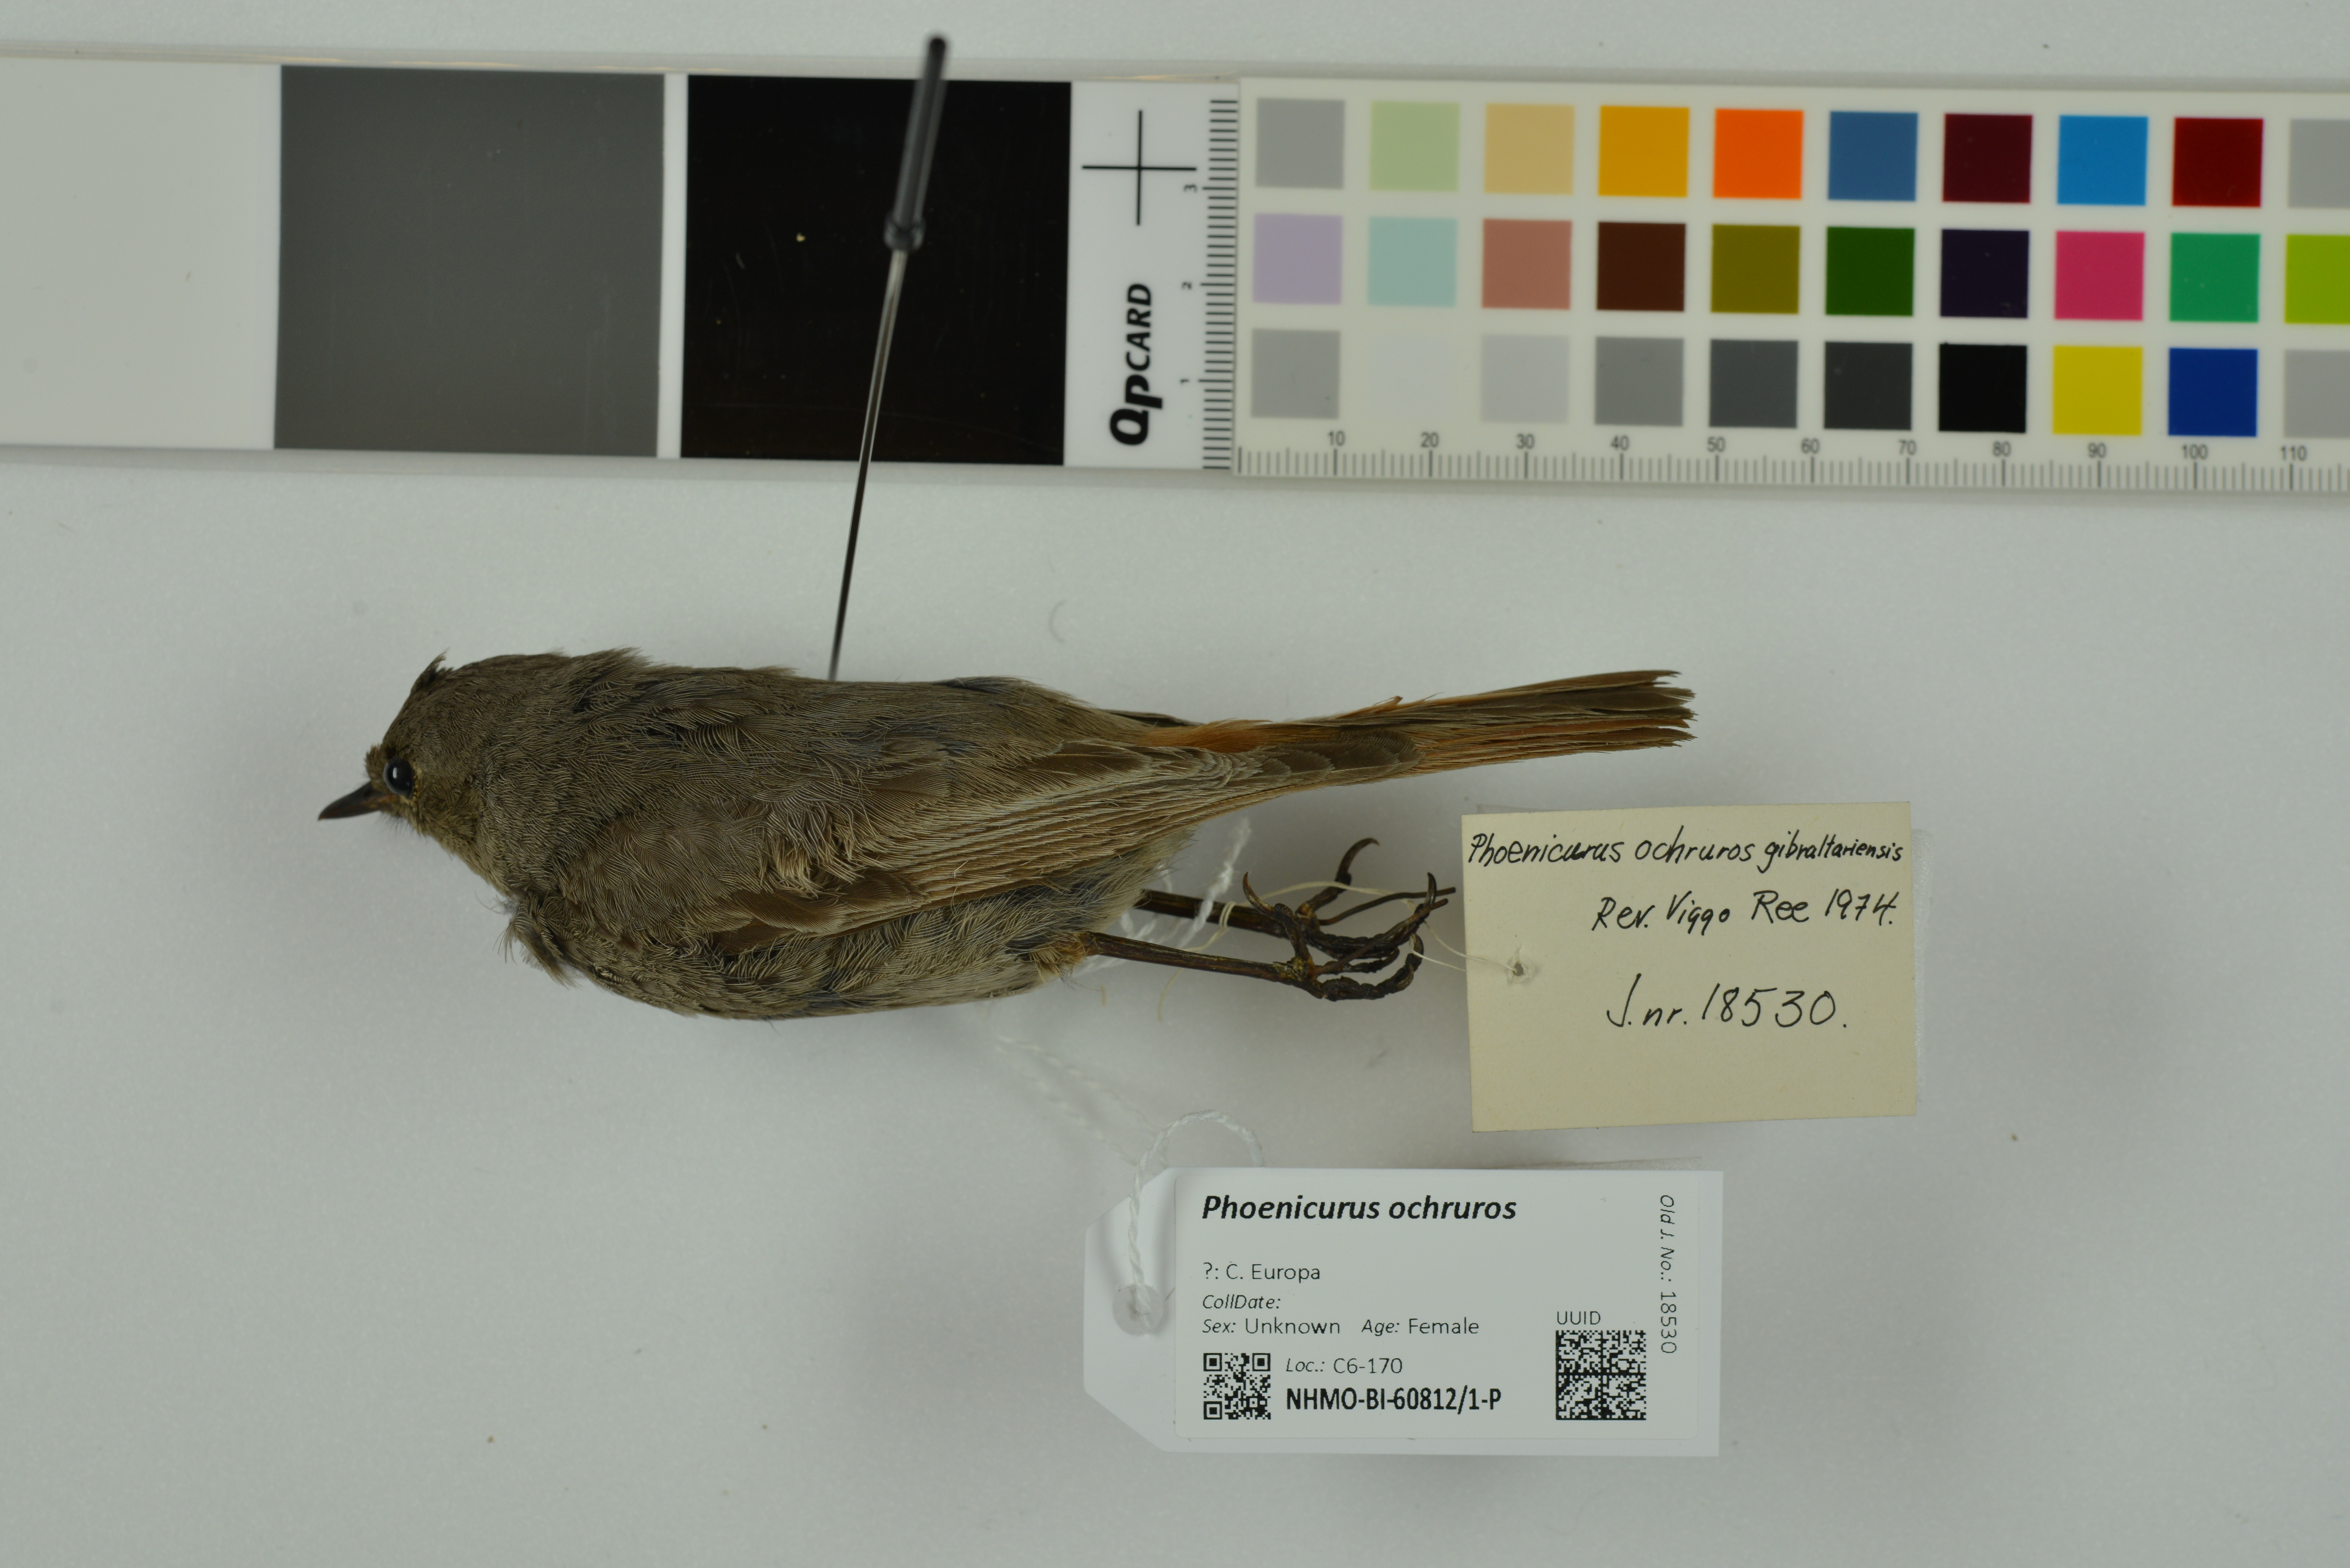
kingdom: Animalia
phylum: Chordata
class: Aves
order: Passeriformes
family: Muscicapidae
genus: Phoenicurus
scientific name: Phoenicurus ochruros
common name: Black redstart
